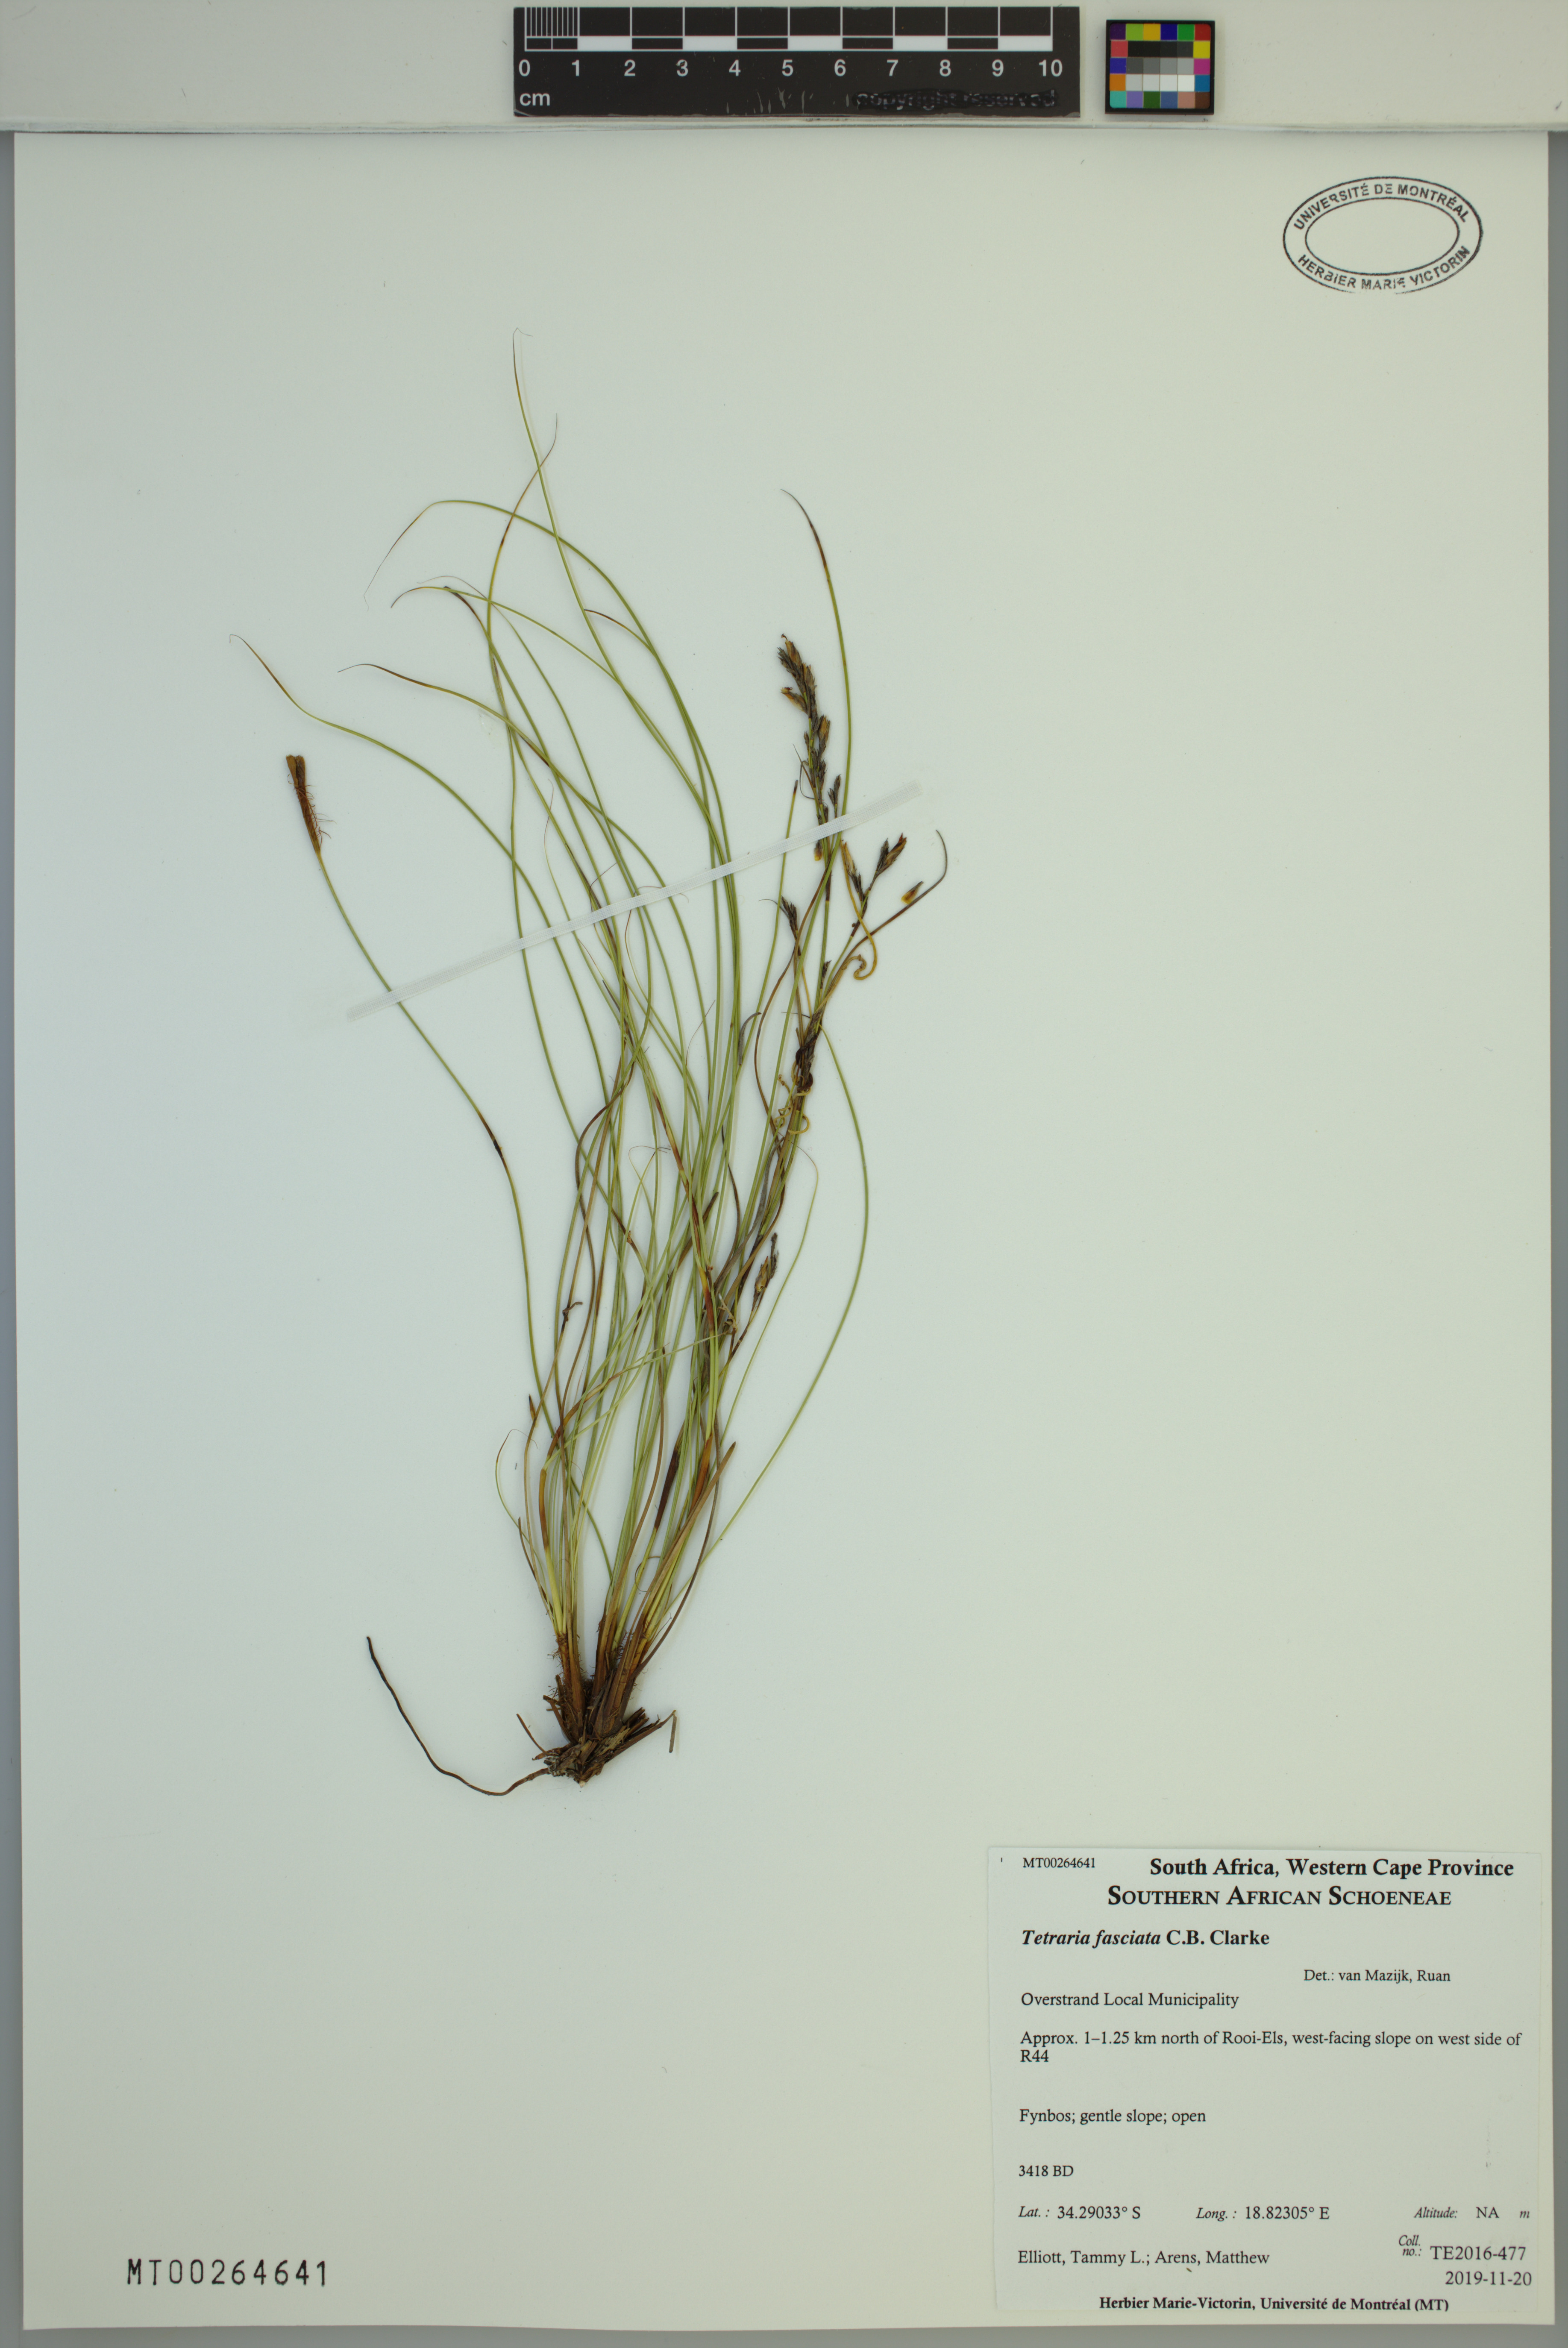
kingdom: Plantae
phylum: Tracheophyta
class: Liliopsida
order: Poales
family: Cyperaceae
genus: Tetraria
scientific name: Tetraria fasciata
